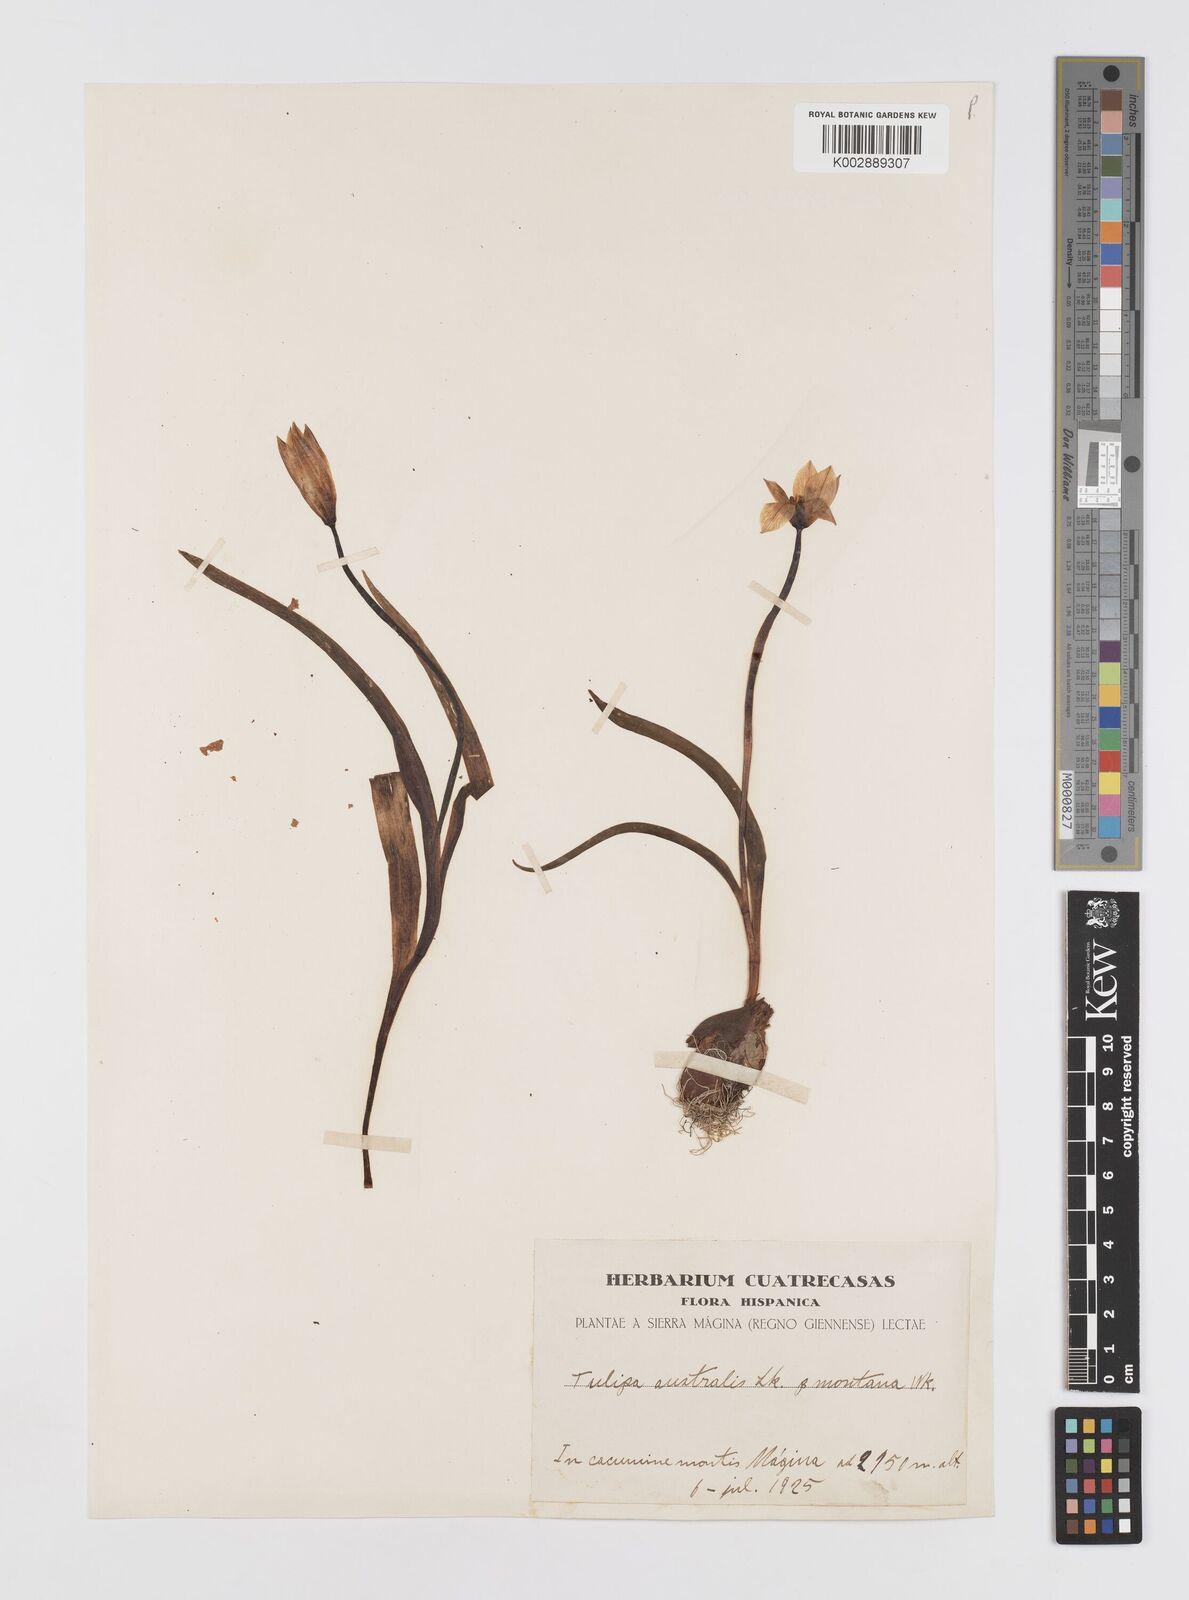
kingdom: Plantae
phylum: Tracheophyta
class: Liliopsida
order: Liliales
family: Liliaceae
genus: Tulipa
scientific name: Tulipa
